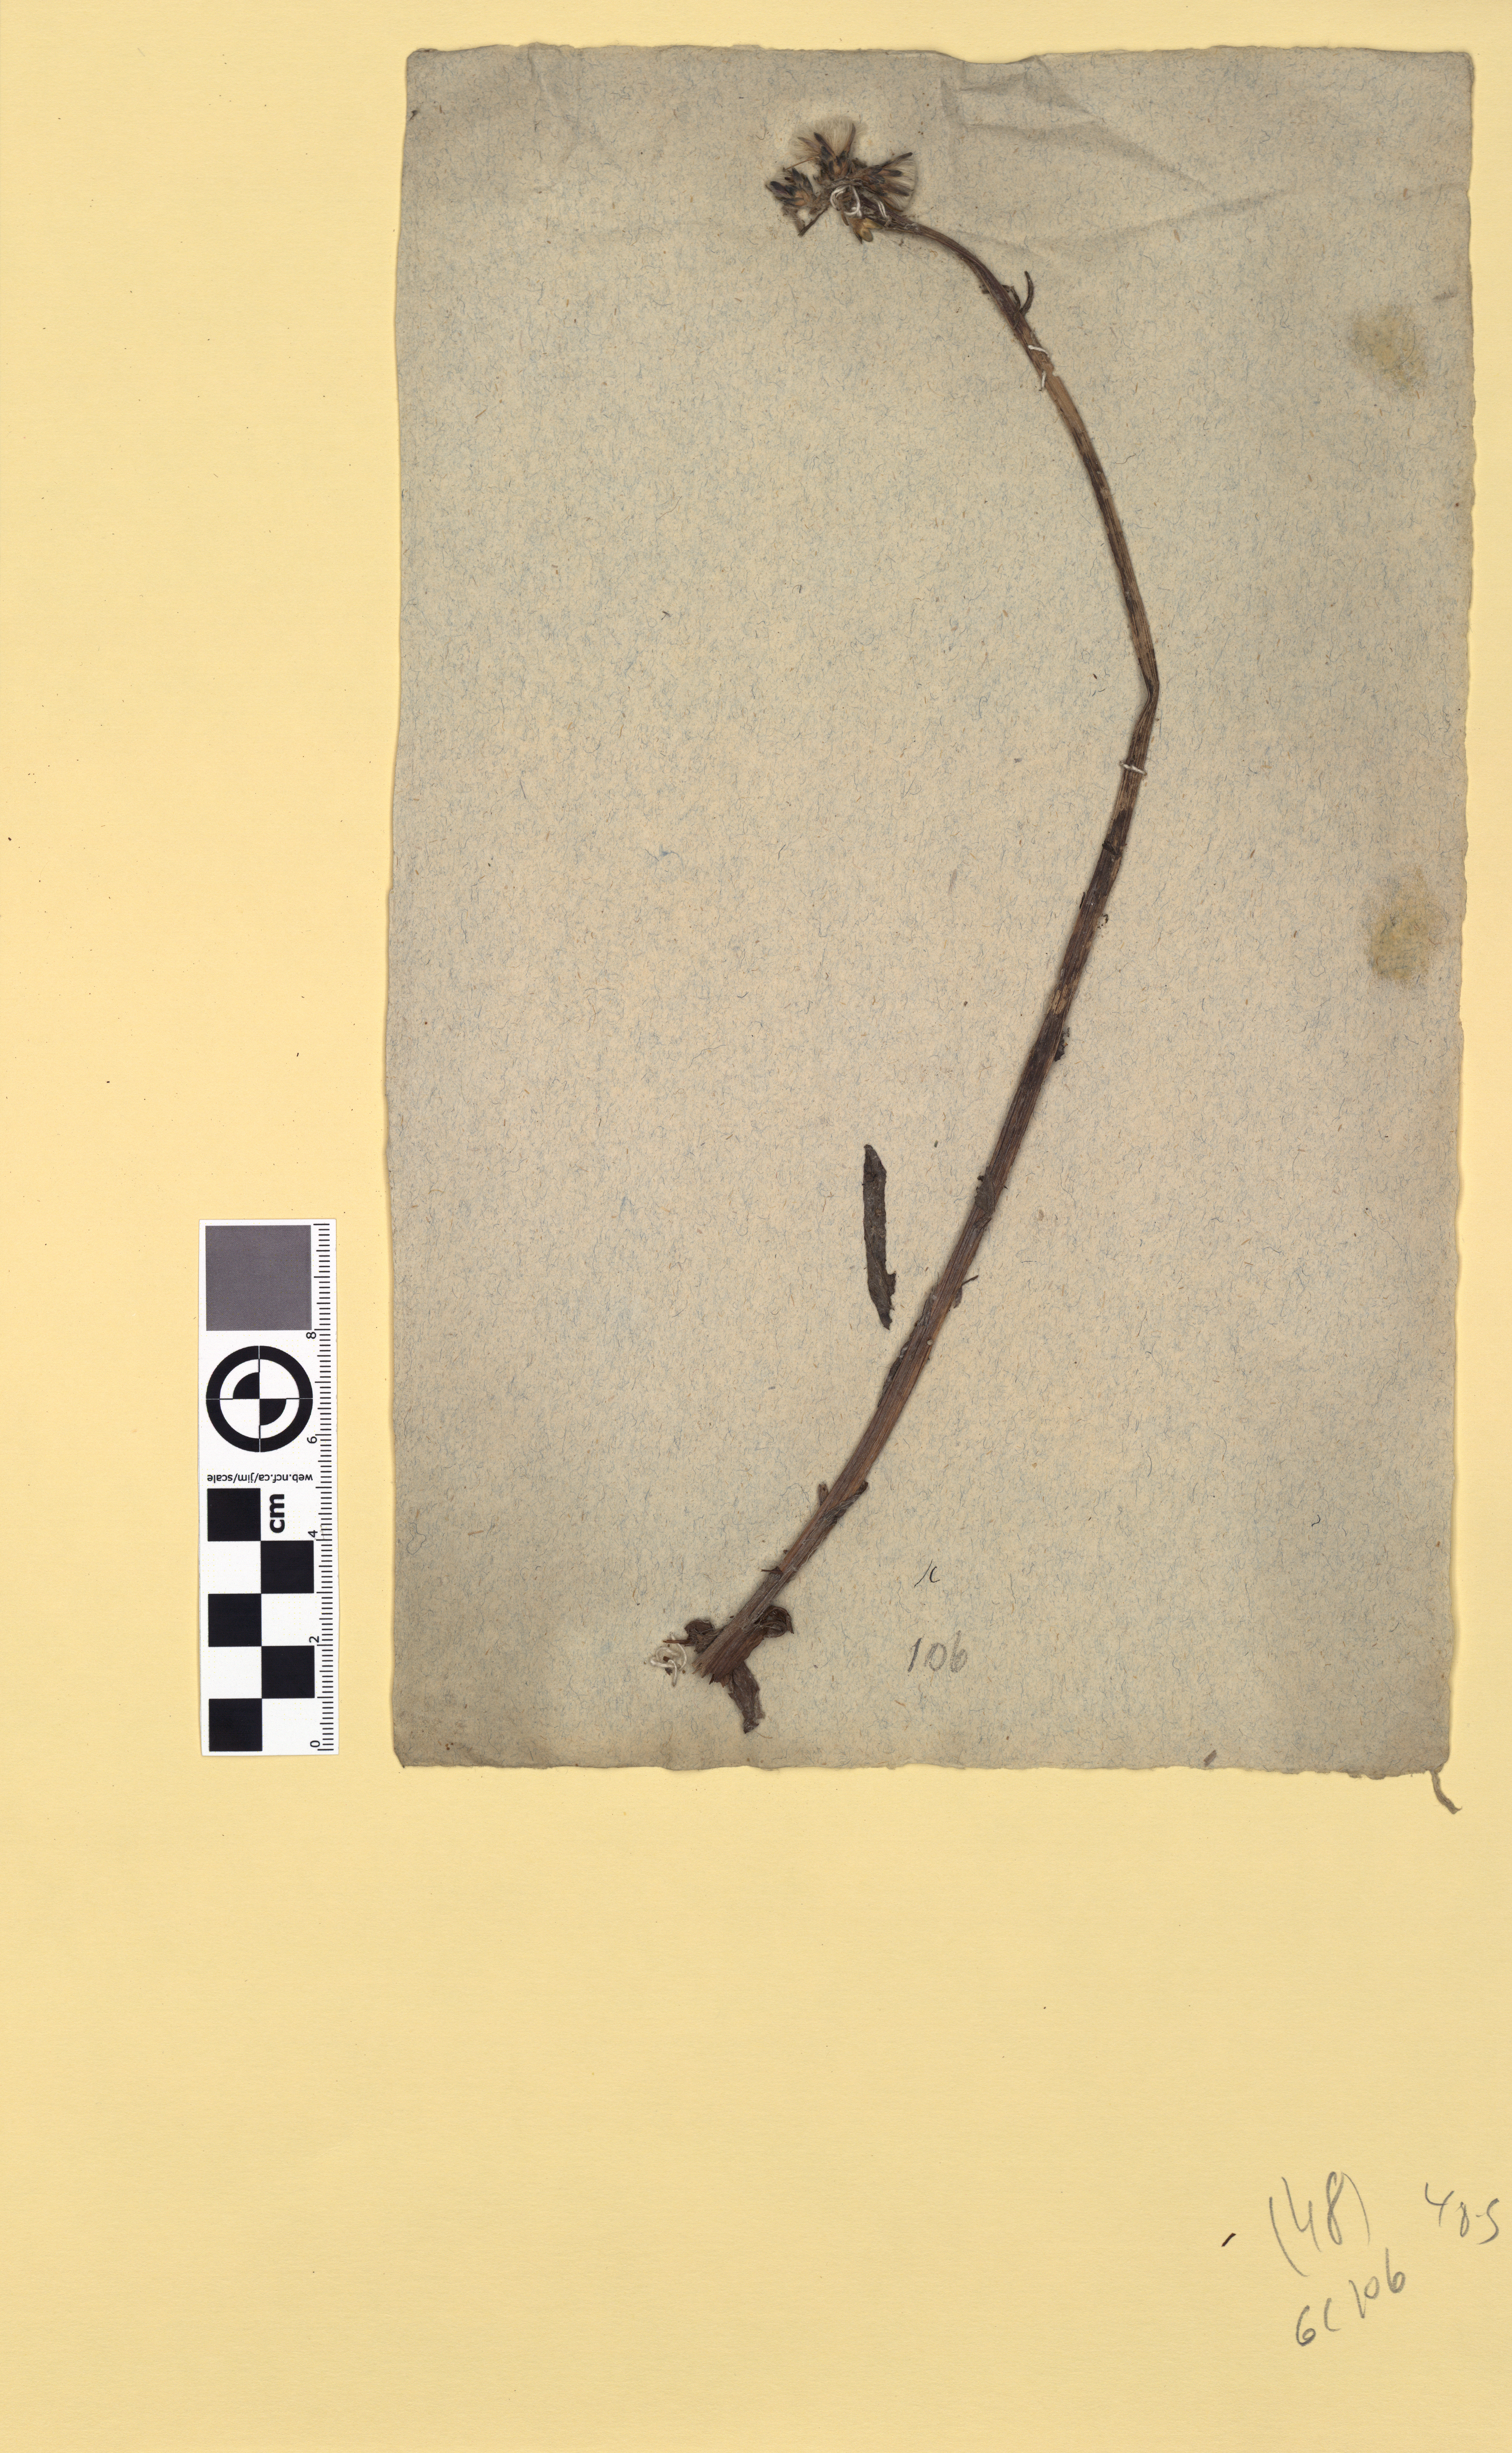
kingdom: Plantae
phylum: Tracheophyta
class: Magnoliopsida
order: Asterales
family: Asteraceae
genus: Saussurea
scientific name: Saussurea alpina
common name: Alpine saw-wort
